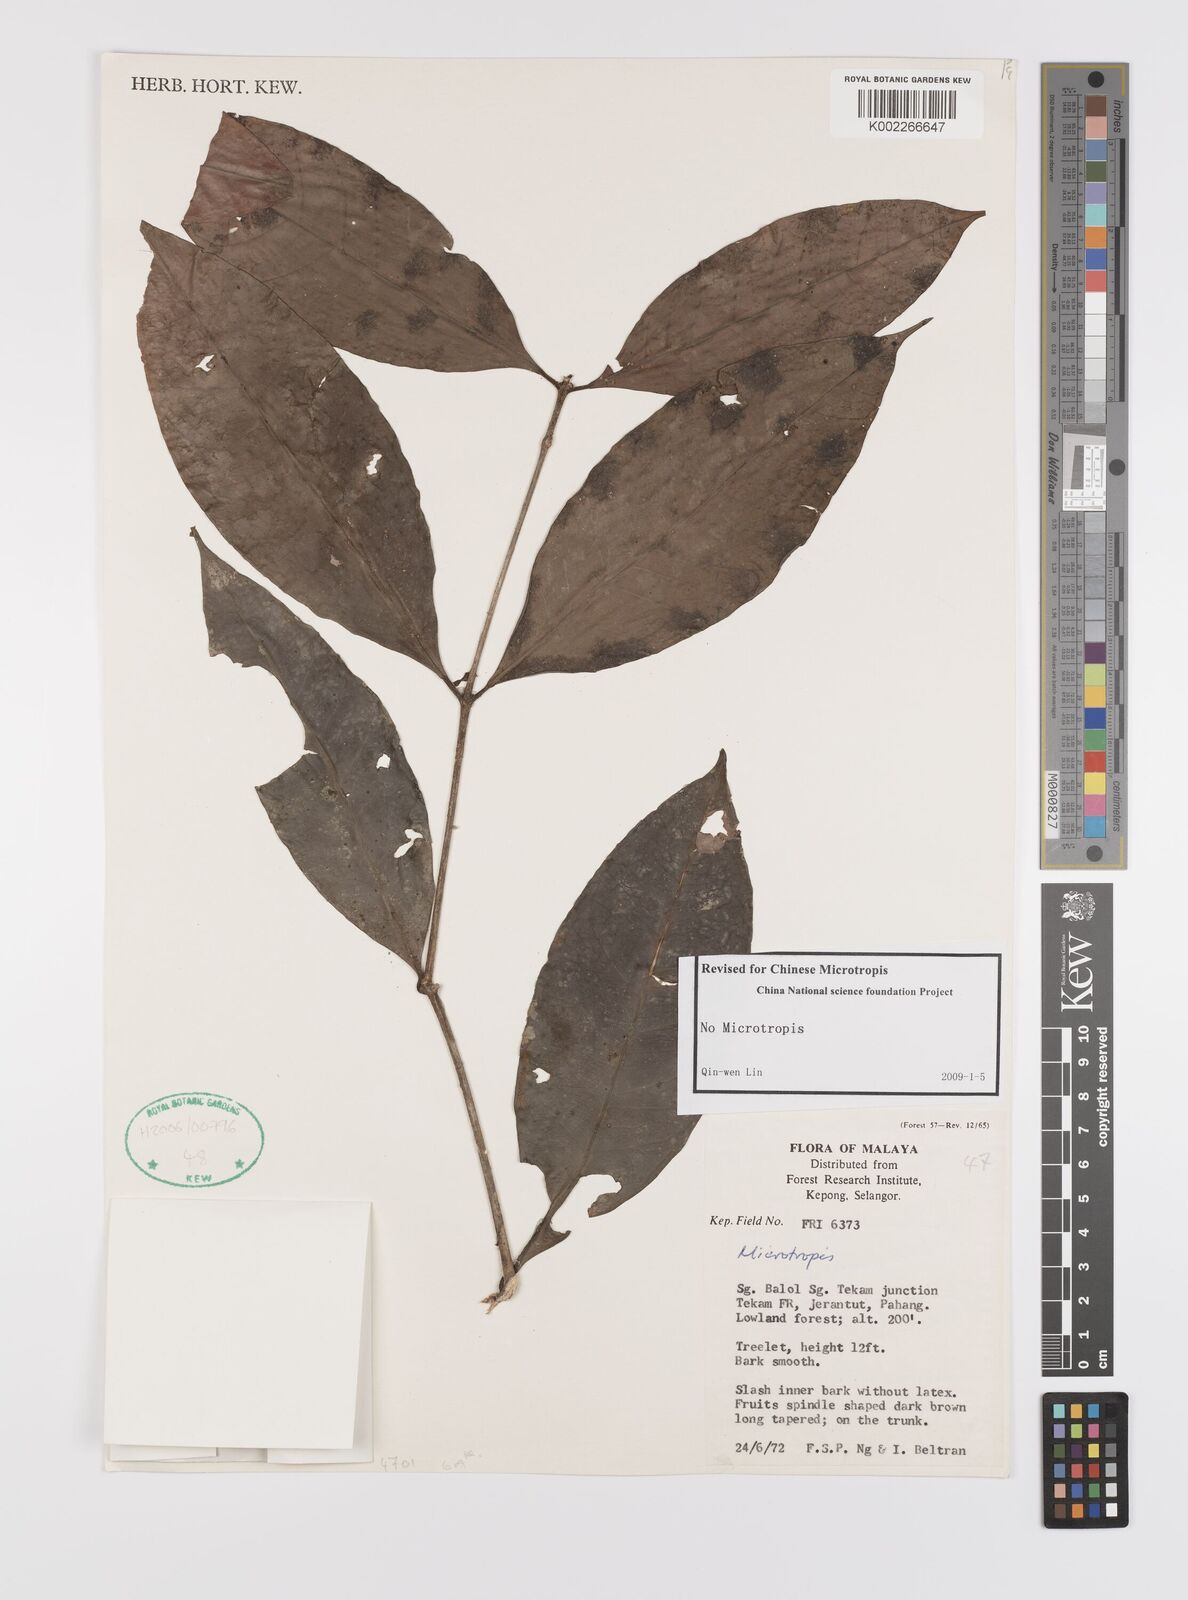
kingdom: Plantae
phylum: Tracheophyta
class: Magnoliopsida
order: Celastrales
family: Celastraceae
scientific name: Celastraceae
